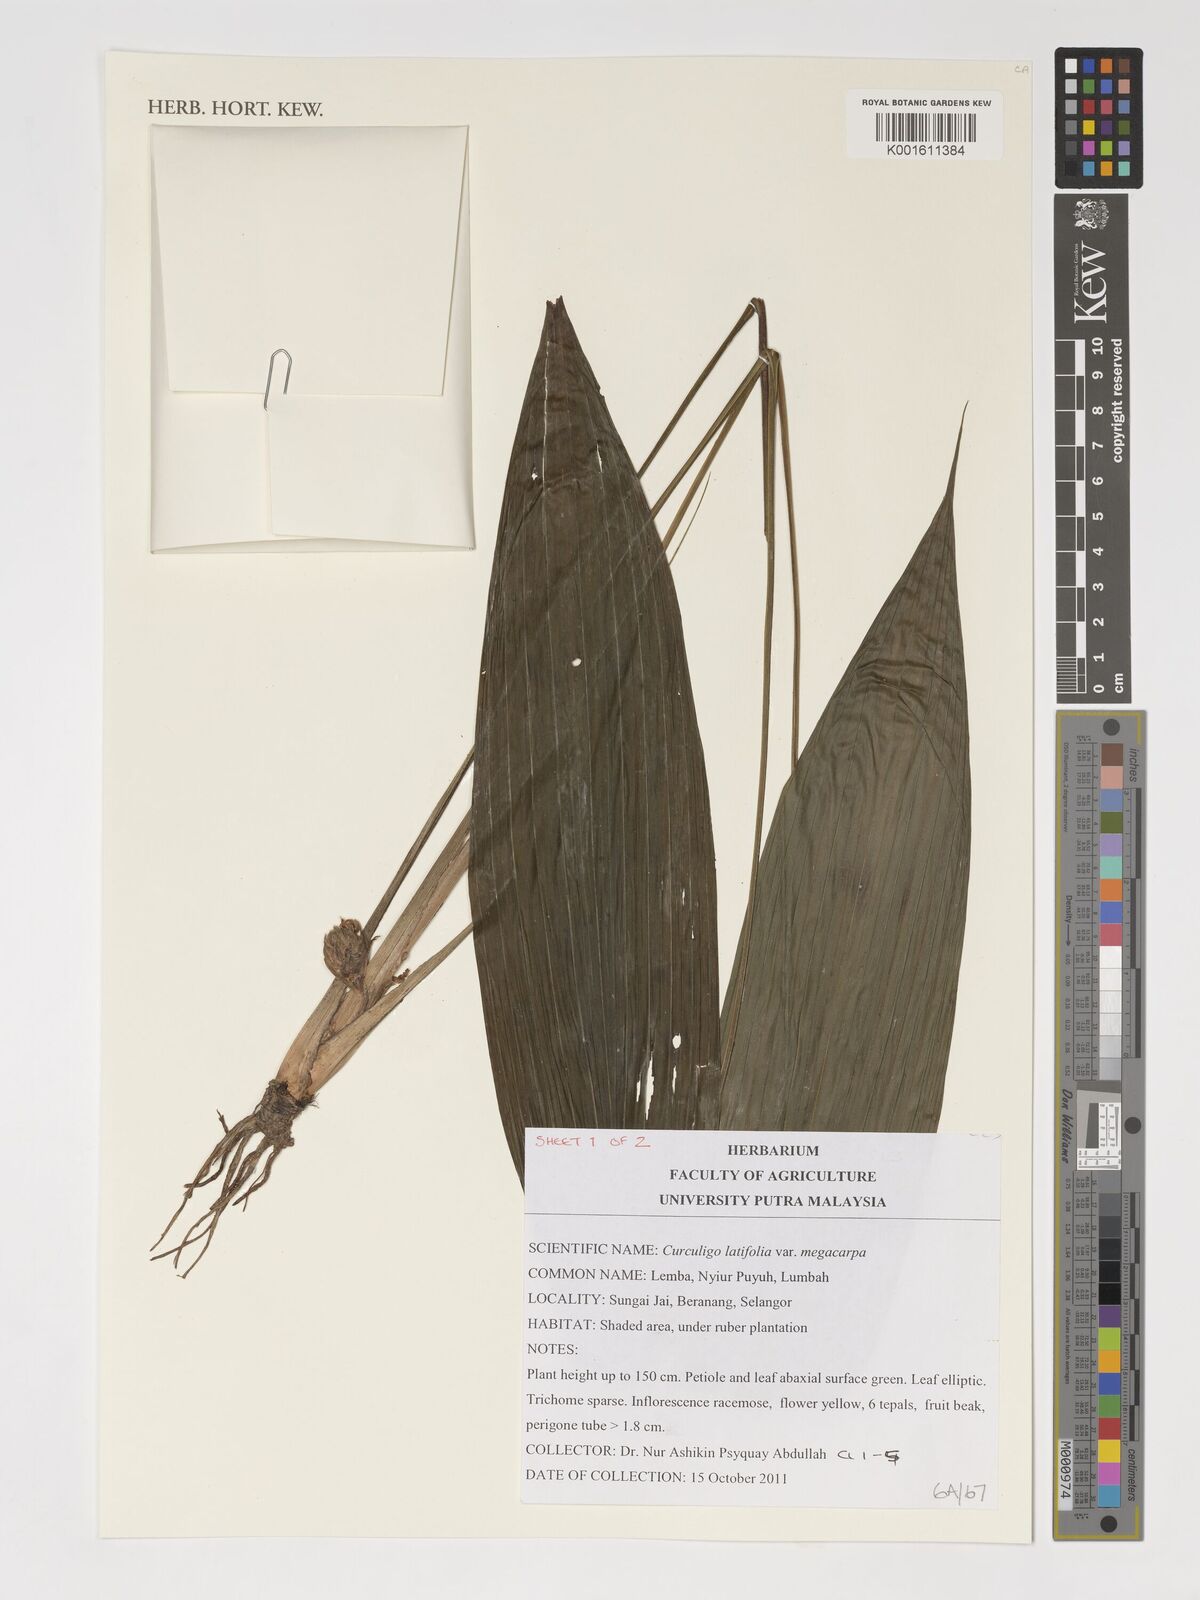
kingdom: Plantae
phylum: Tracheophyta
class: Liliopsida
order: Asparagales
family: Hypoxidaceae
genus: Curculigo
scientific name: Curculigo latifolia
